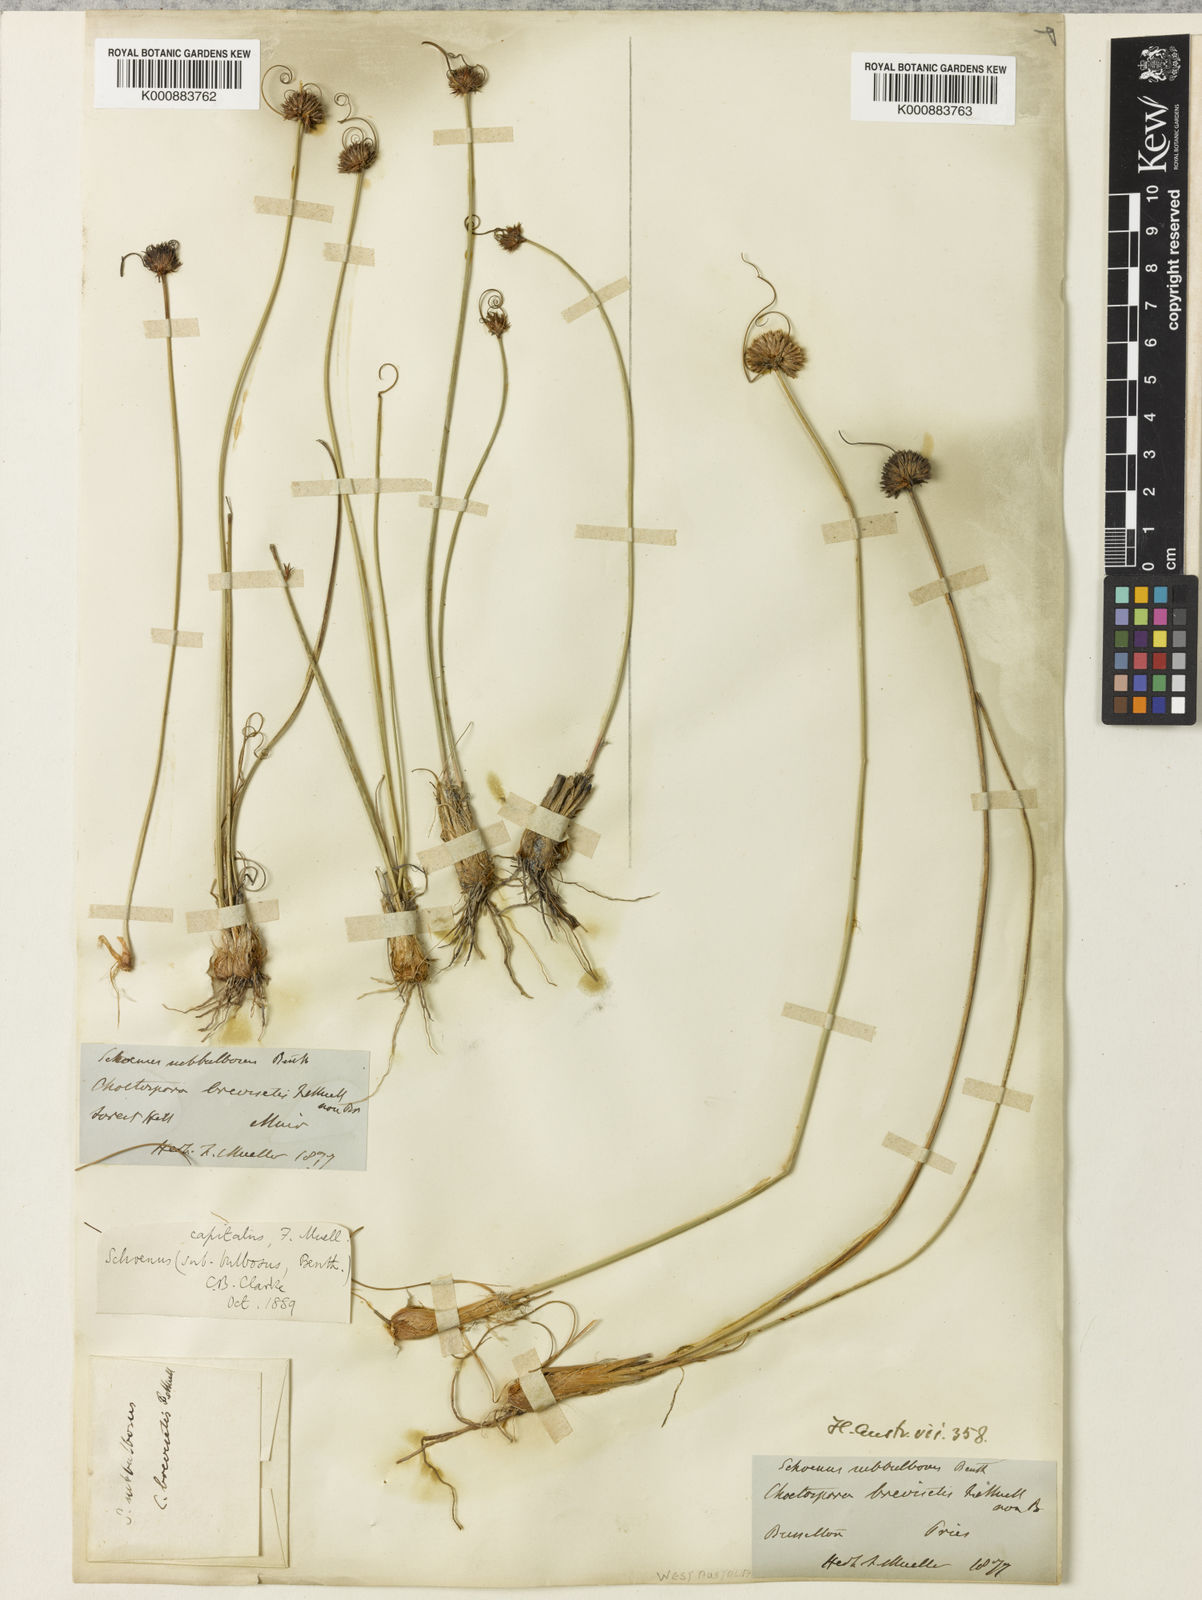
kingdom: Plantae
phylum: Tracheophyta
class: Liliopsida
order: Poales
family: Cyperaceae
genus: Schoenus
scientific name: Schoenus subbulbosus
